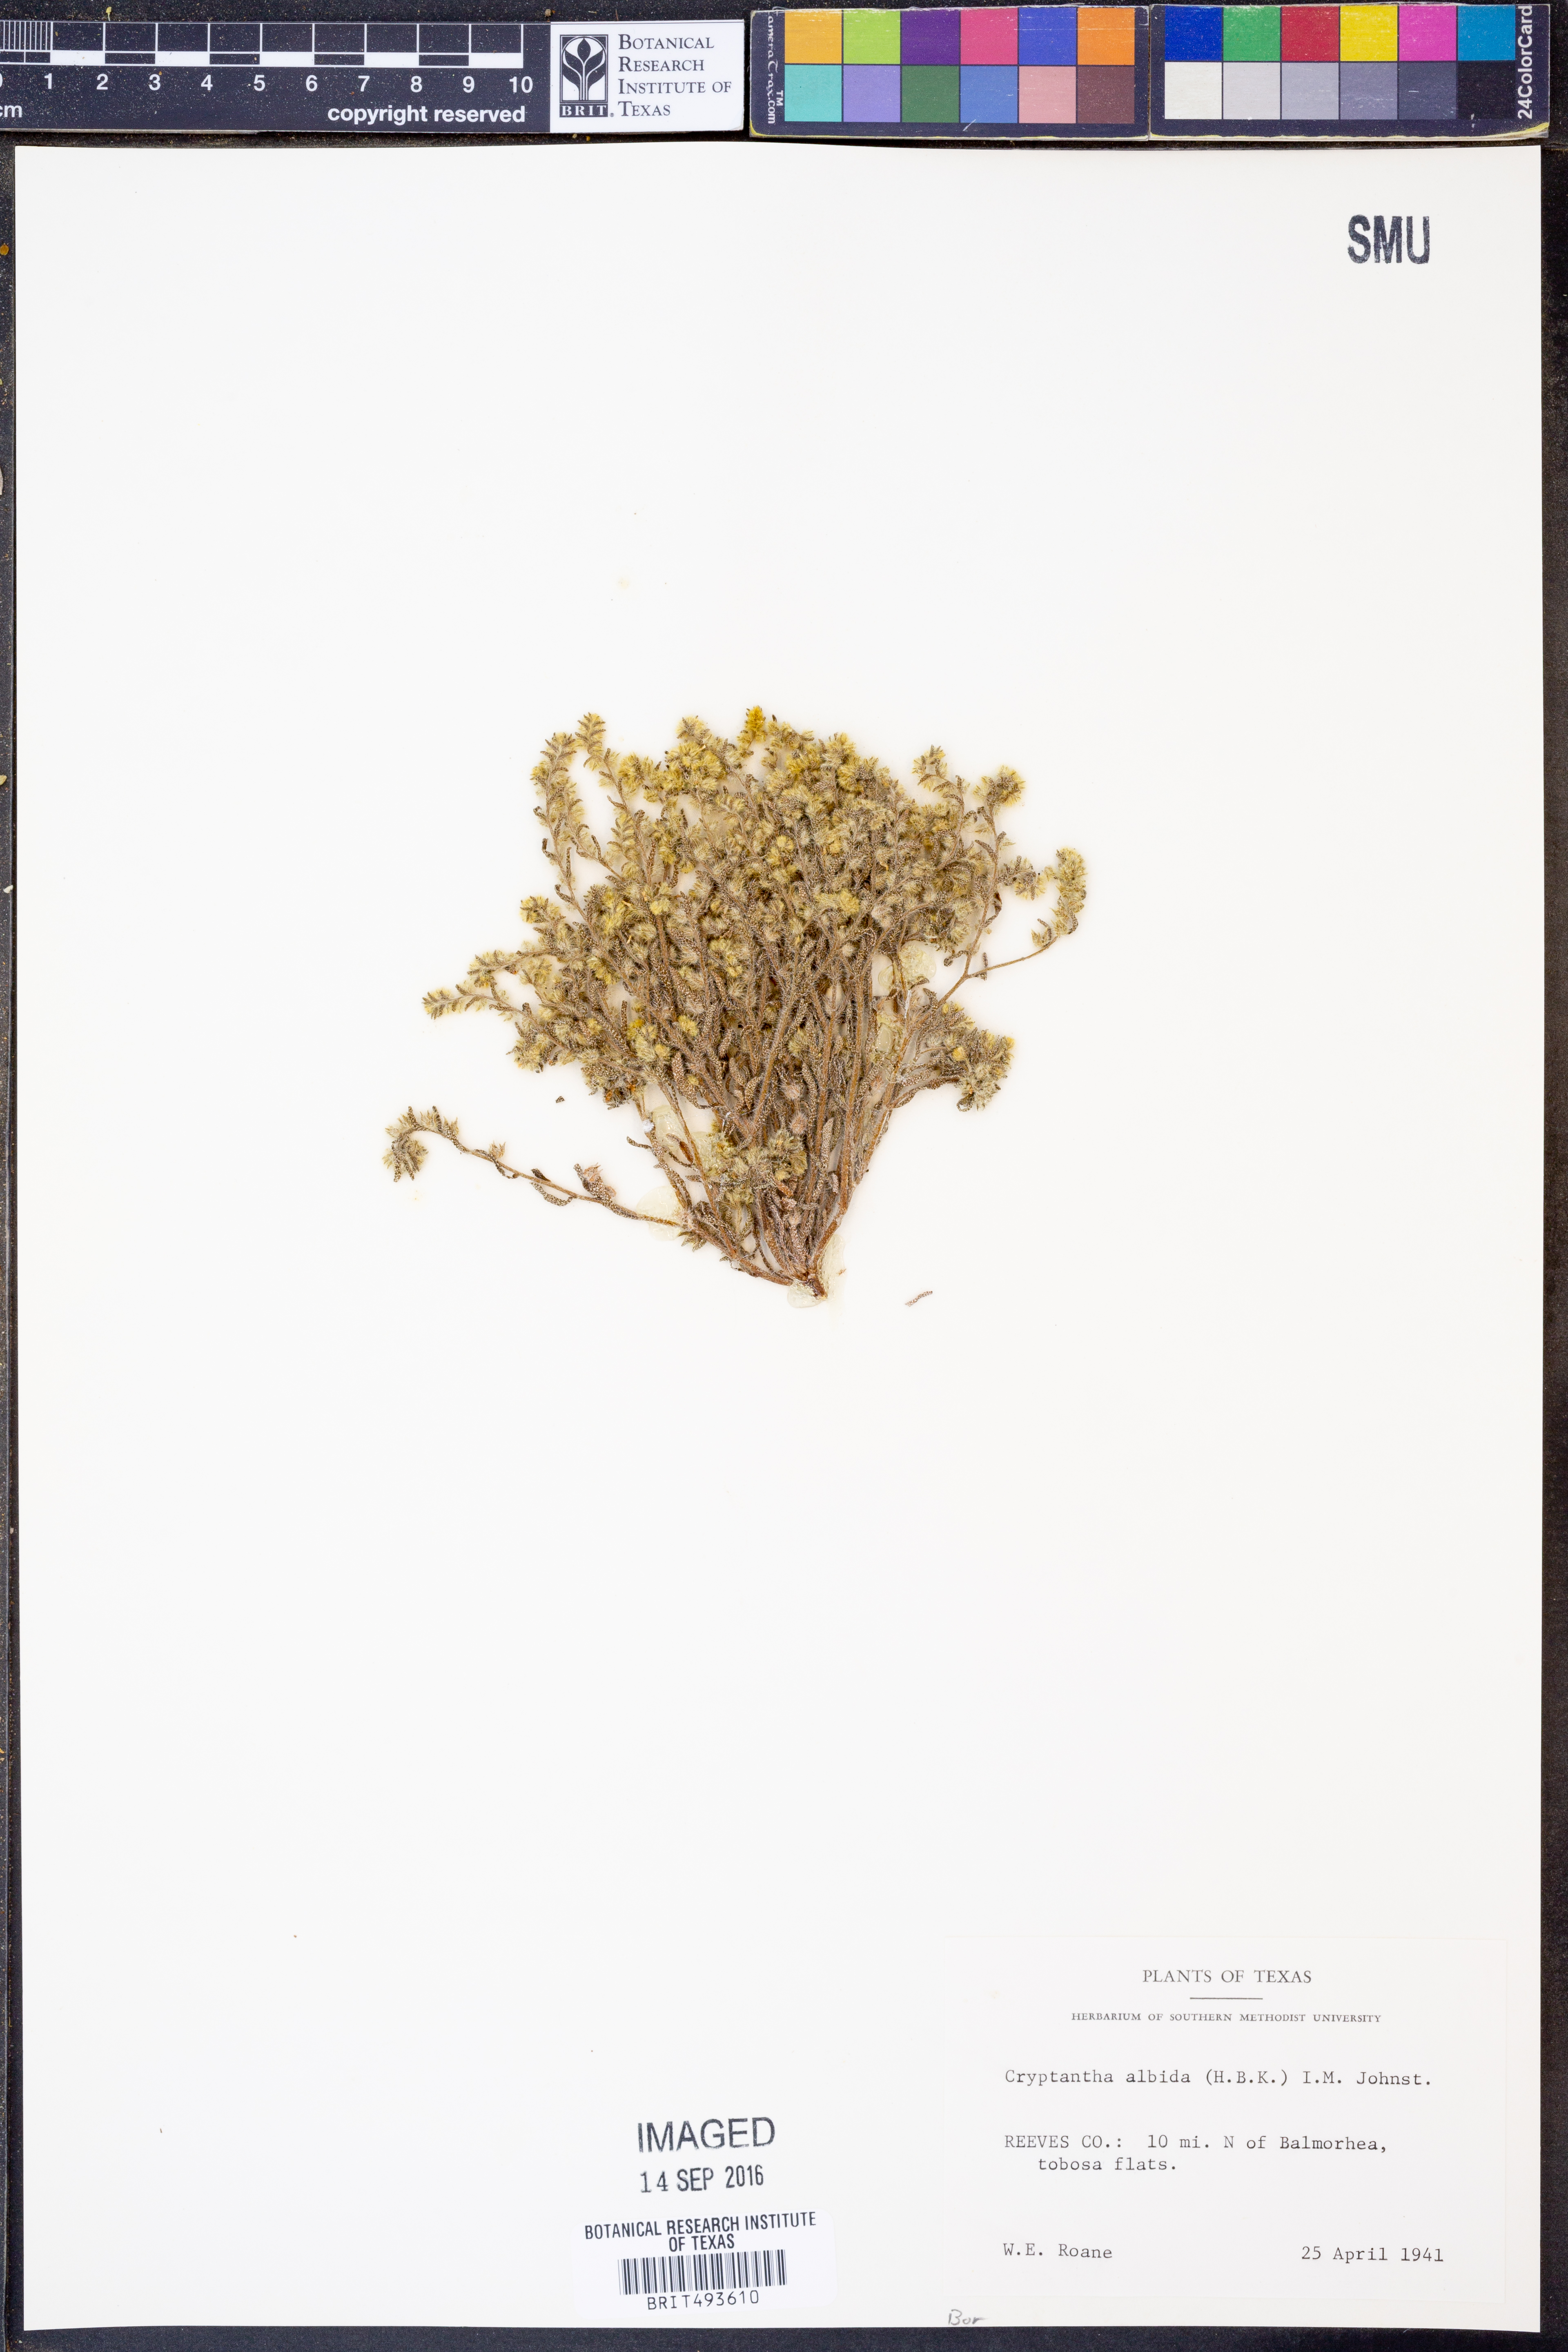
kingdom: Plantae
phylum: Tracheophyta
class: Magnoliopsida
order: Boraginales
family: Boraginaceae
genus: Johnstonella
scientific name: Johnstonella albida
